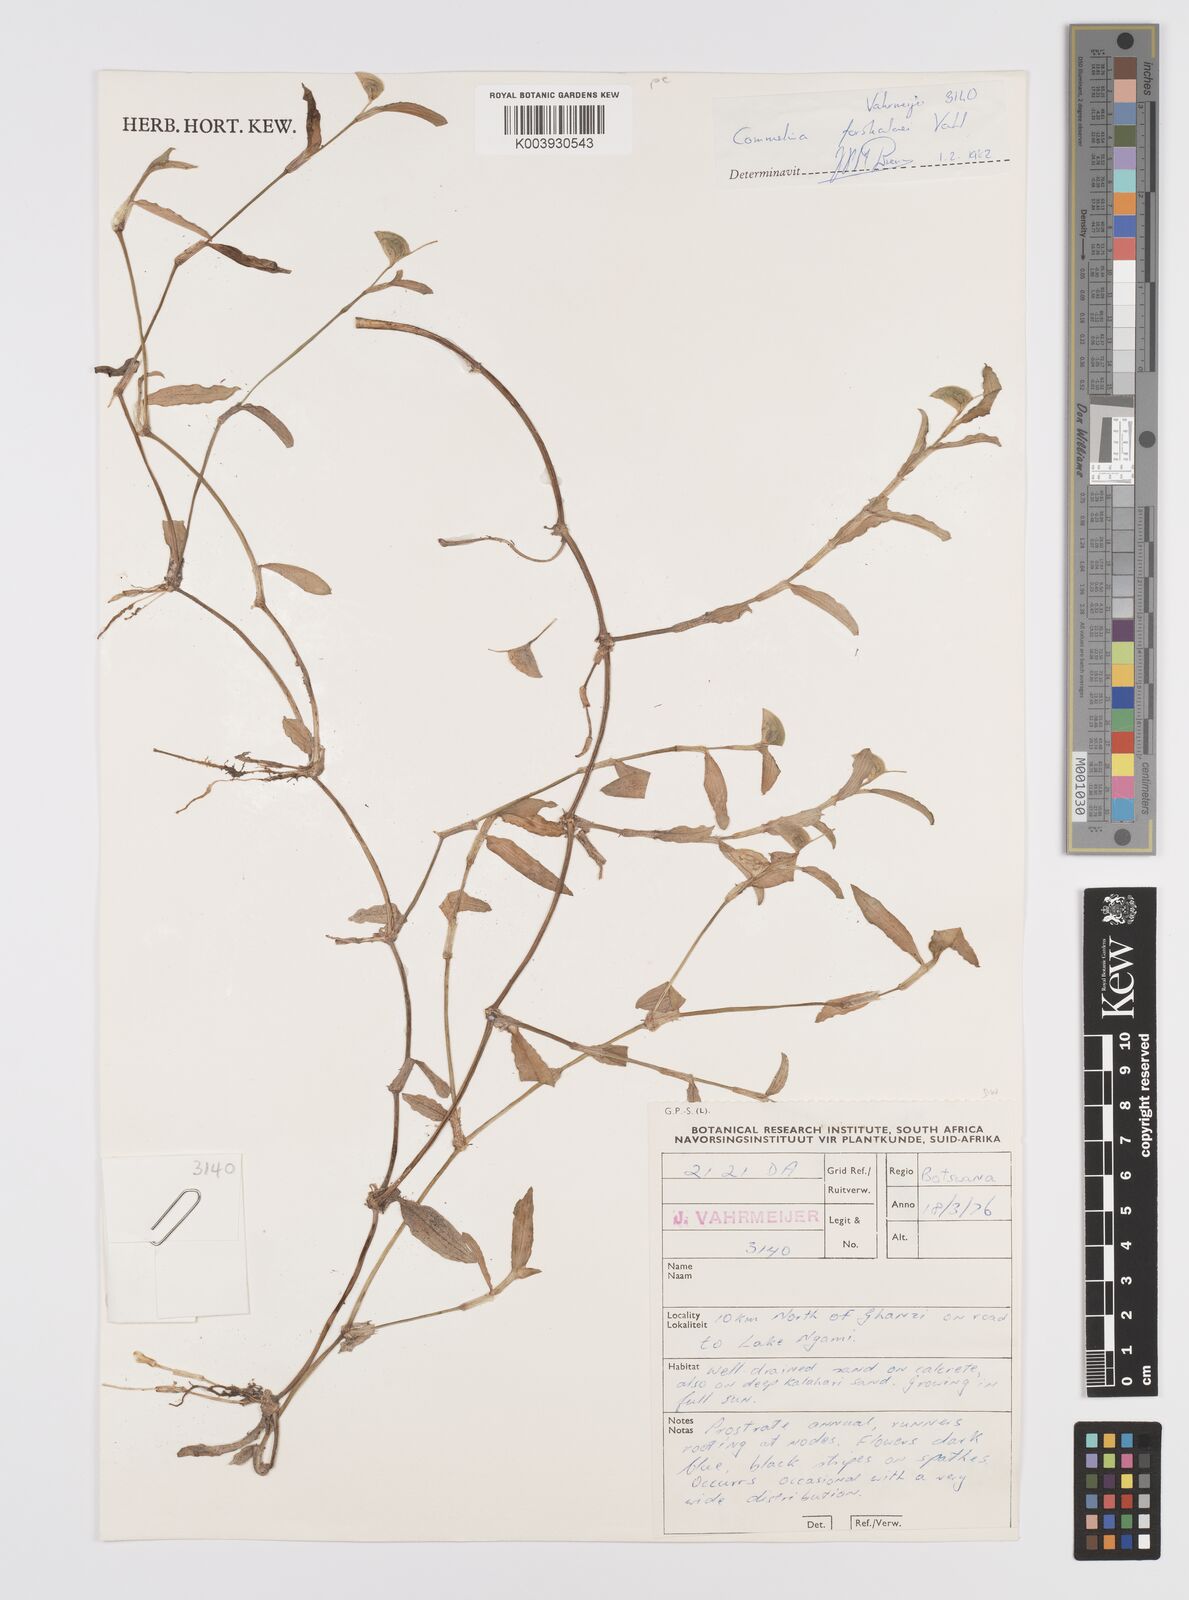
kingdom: Plantae
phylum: Tracheophyta
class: Liliopsida
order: Commelinales
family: Commelinaceae
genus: Commelina
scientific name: Commelina forskaolii
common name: Rat's ear
